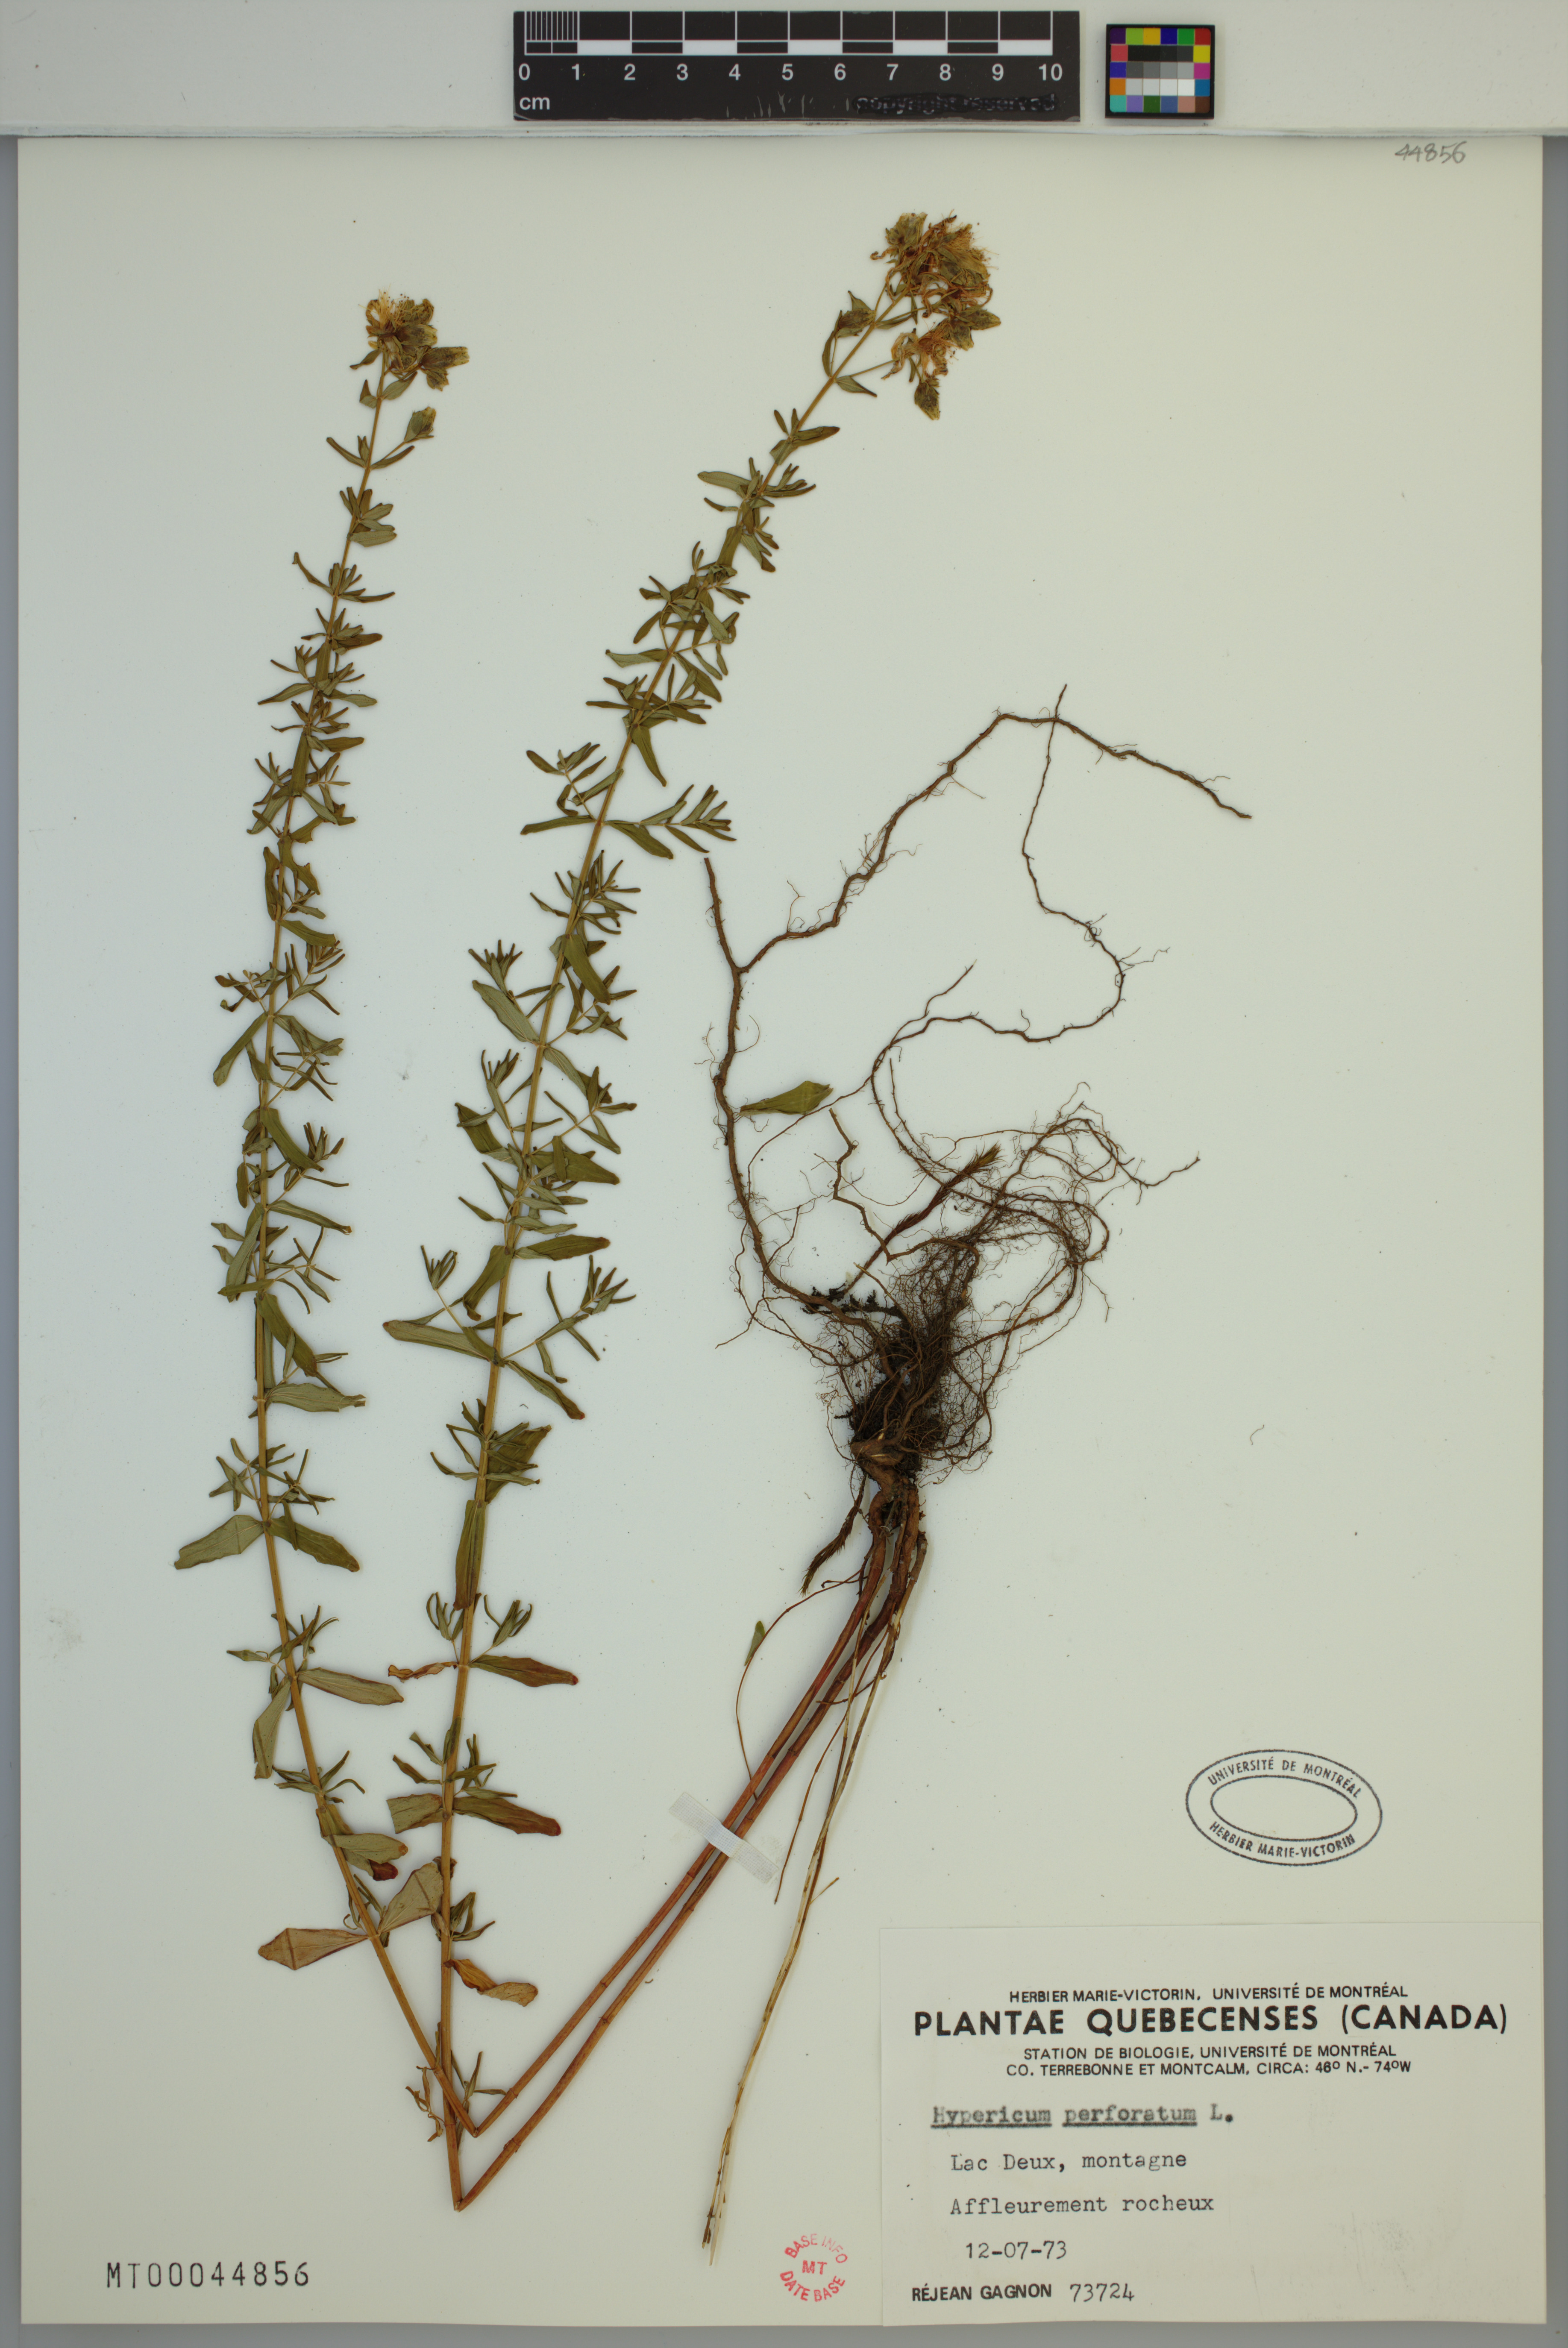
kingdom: Plantae
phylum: Tracheophyta
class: Magnoliopsida
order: Malpighiales
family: Hypericaceae
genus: Hypericum
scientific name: Hypericum perforatum
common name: Common st. johnswort
